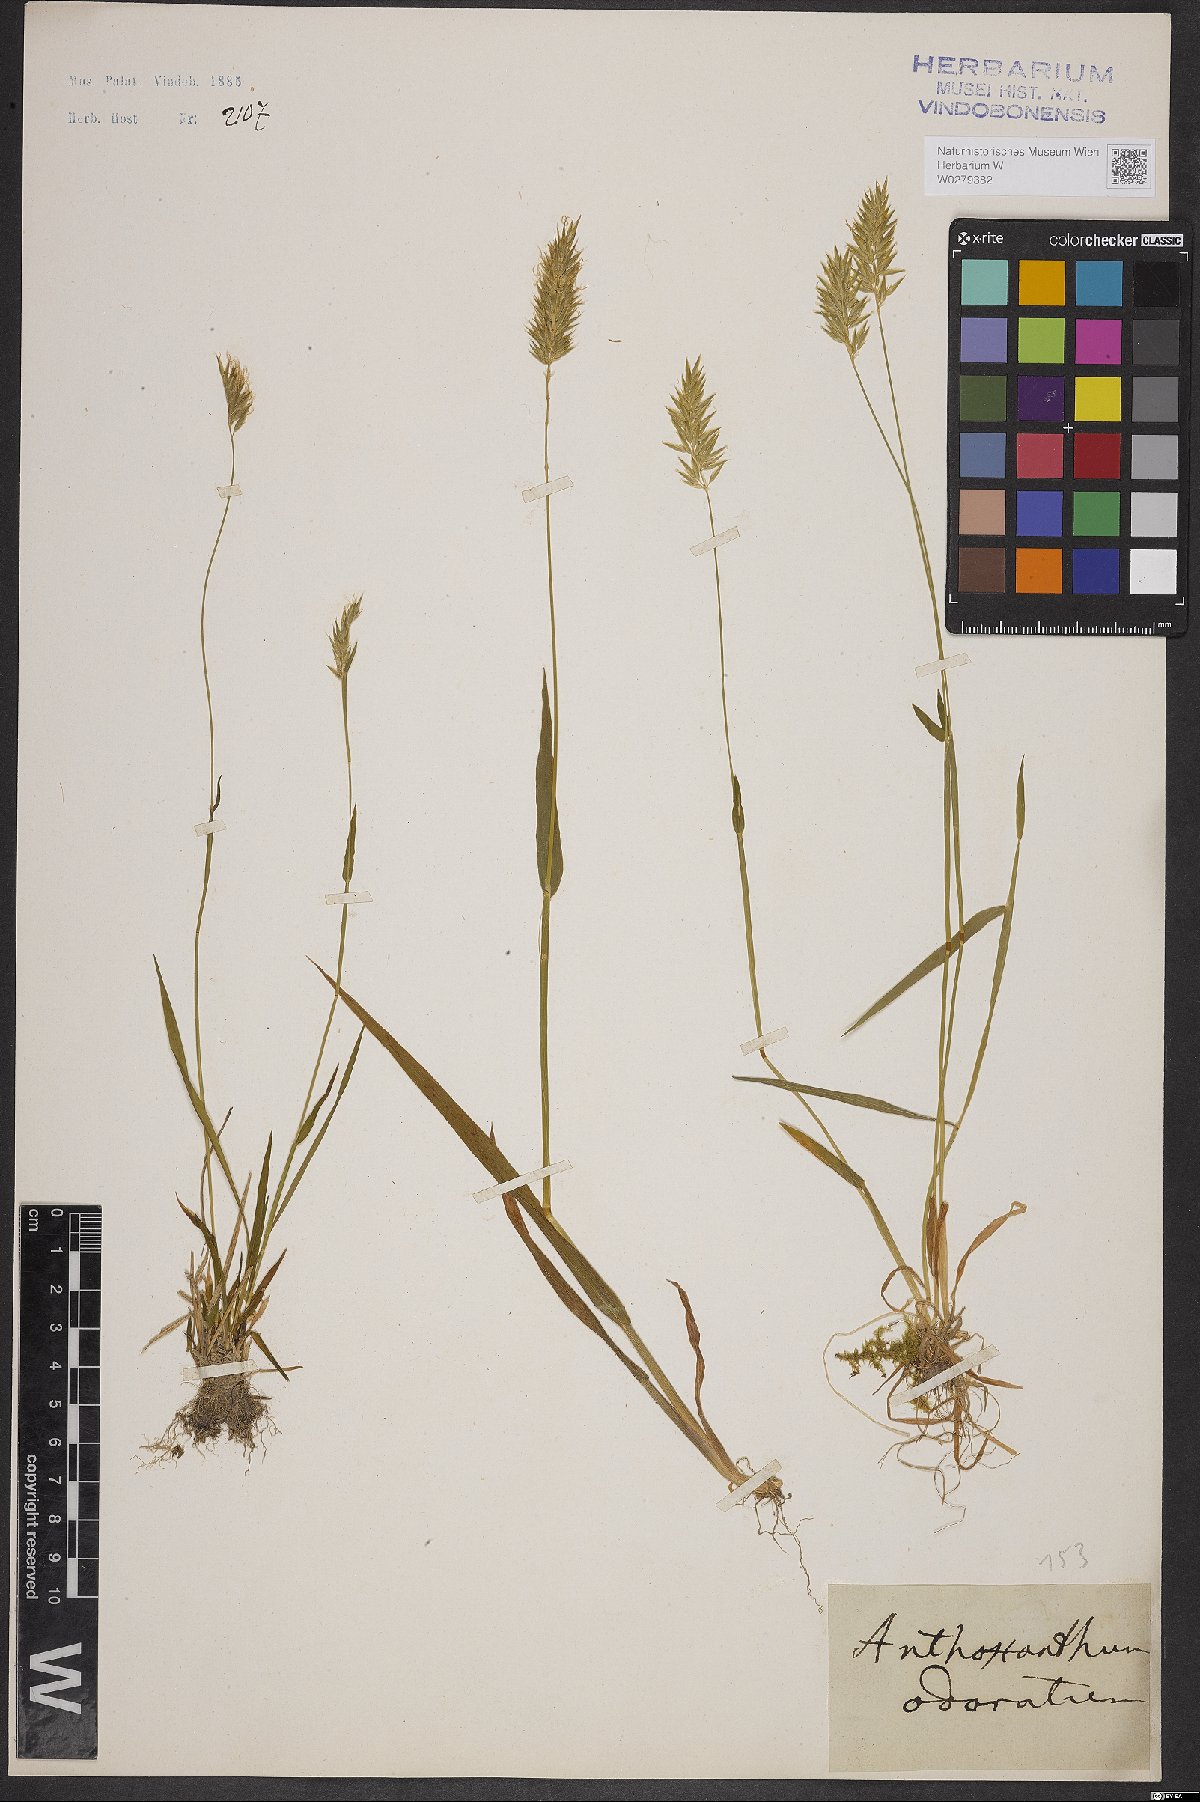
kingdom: Plantae
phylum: Tracheophyta
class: Liliopsida
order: Poales
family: Poaceae
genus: Anthoxanthum
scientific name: Anthoxanthum odoratum
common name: Sweet vernalgrass
